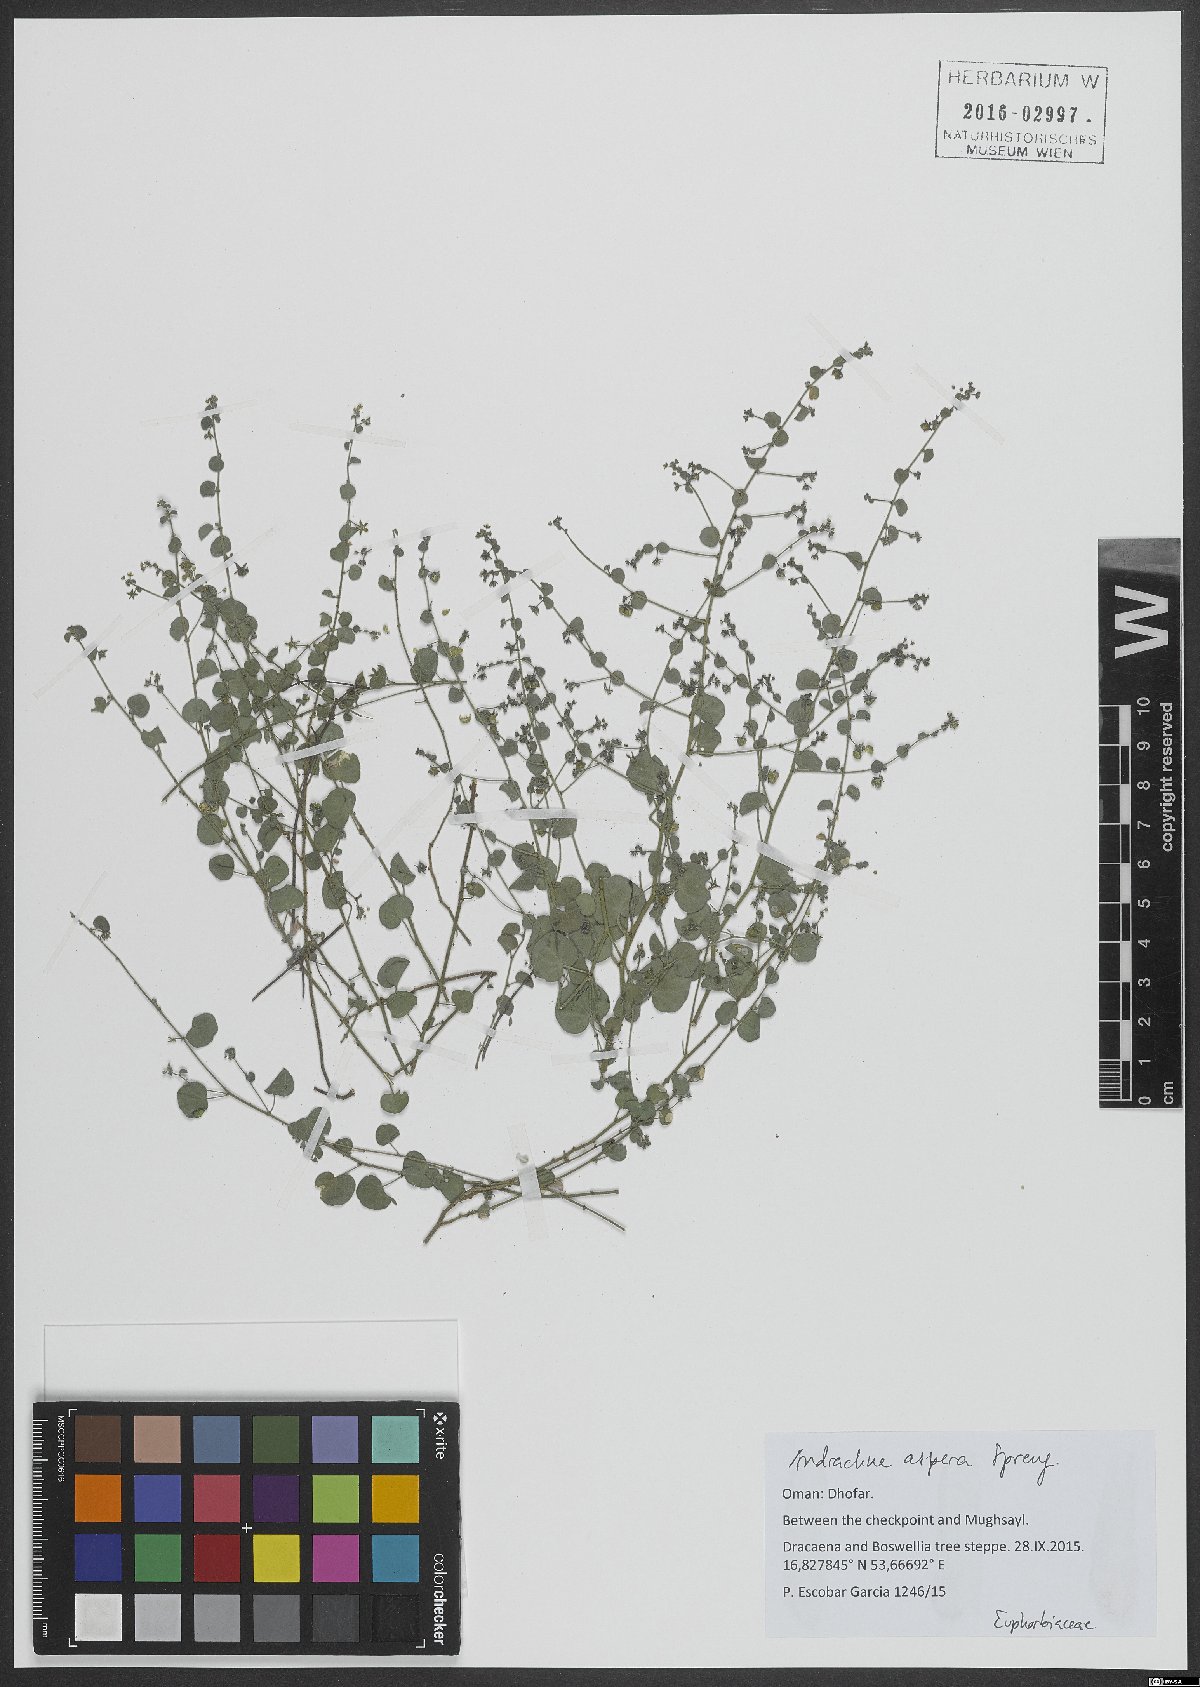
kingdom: Plantae
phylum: Tracheophyta
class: Magnoliopsida
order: Malpighiales
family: Phyllanthaceae
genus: Andrachne
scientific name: Andrachne aspera
